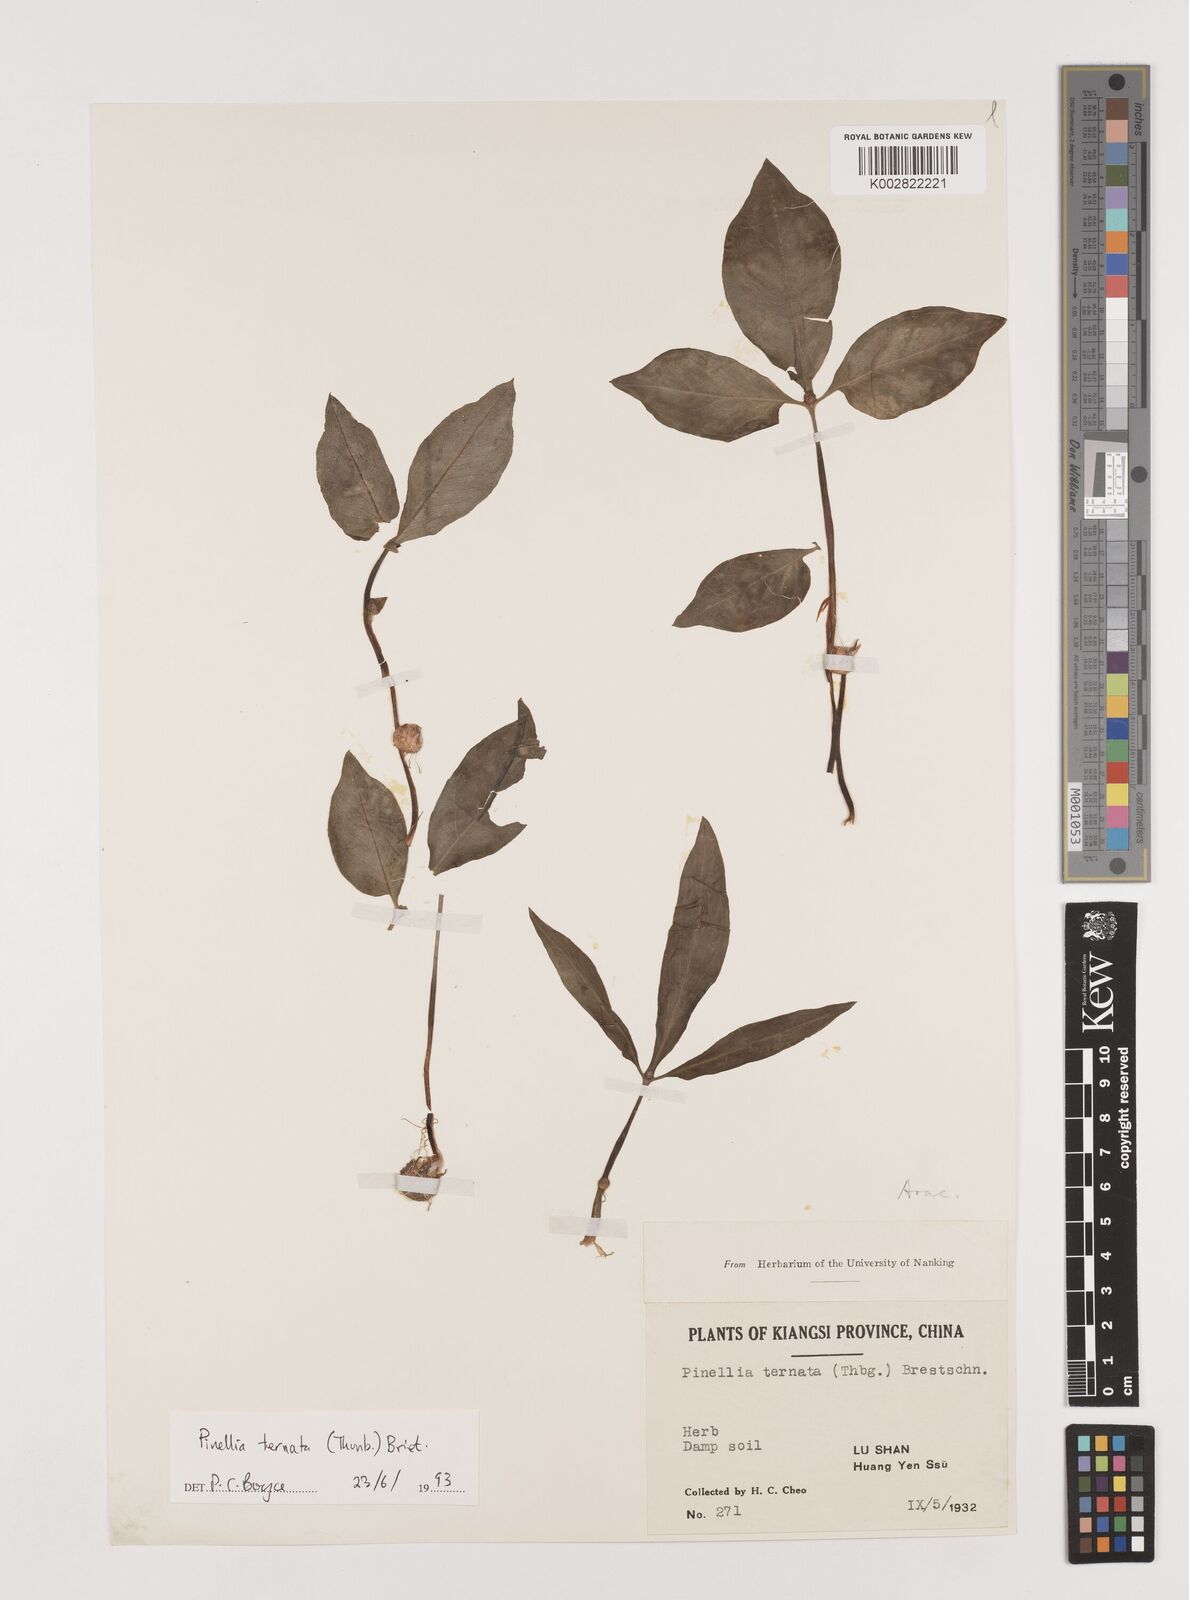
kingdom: Plantae
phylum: Tracheophyta
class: Liliopsida
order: Alismatales
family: Araceae
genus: Pinellia
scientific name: Pinellia ternata
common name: Pinellia
